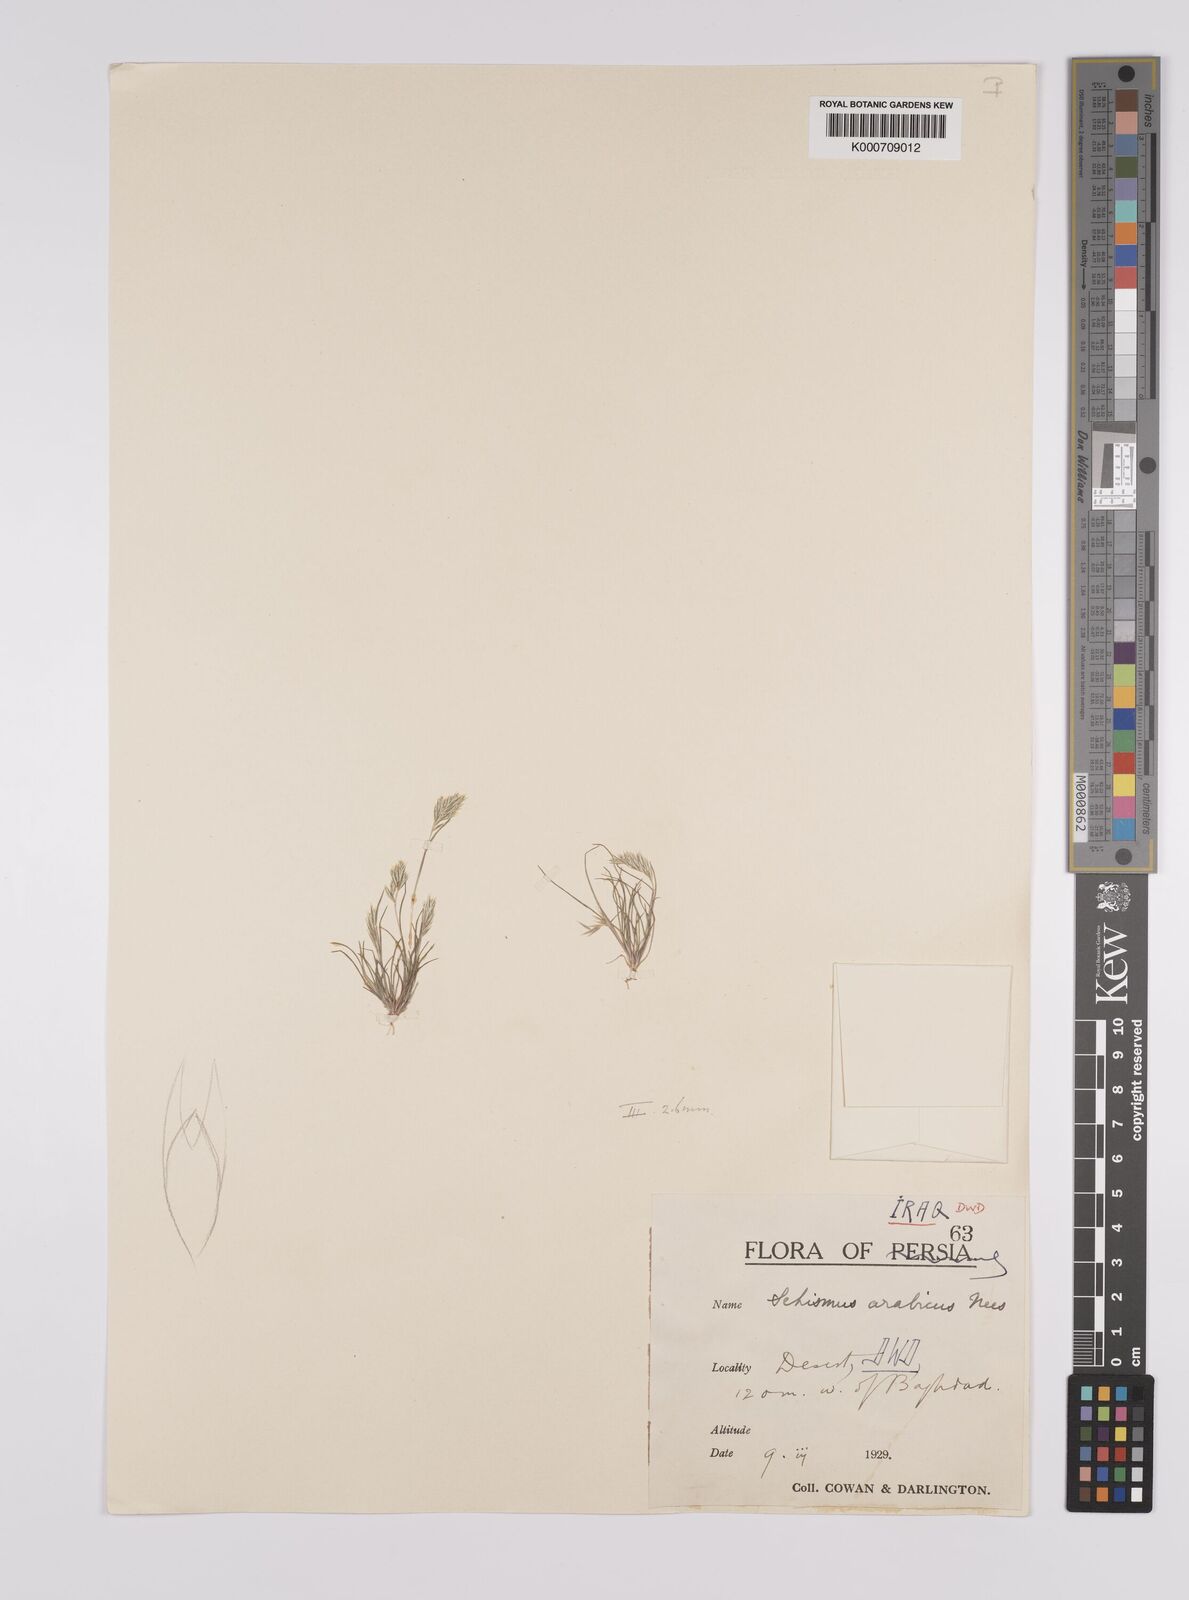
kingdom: Plantae
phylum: Tracheophyta
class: Liliopsida
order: Poales
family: Poaceae
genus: Schismus
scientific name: Schismus arabicus
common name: Arabian schismus
